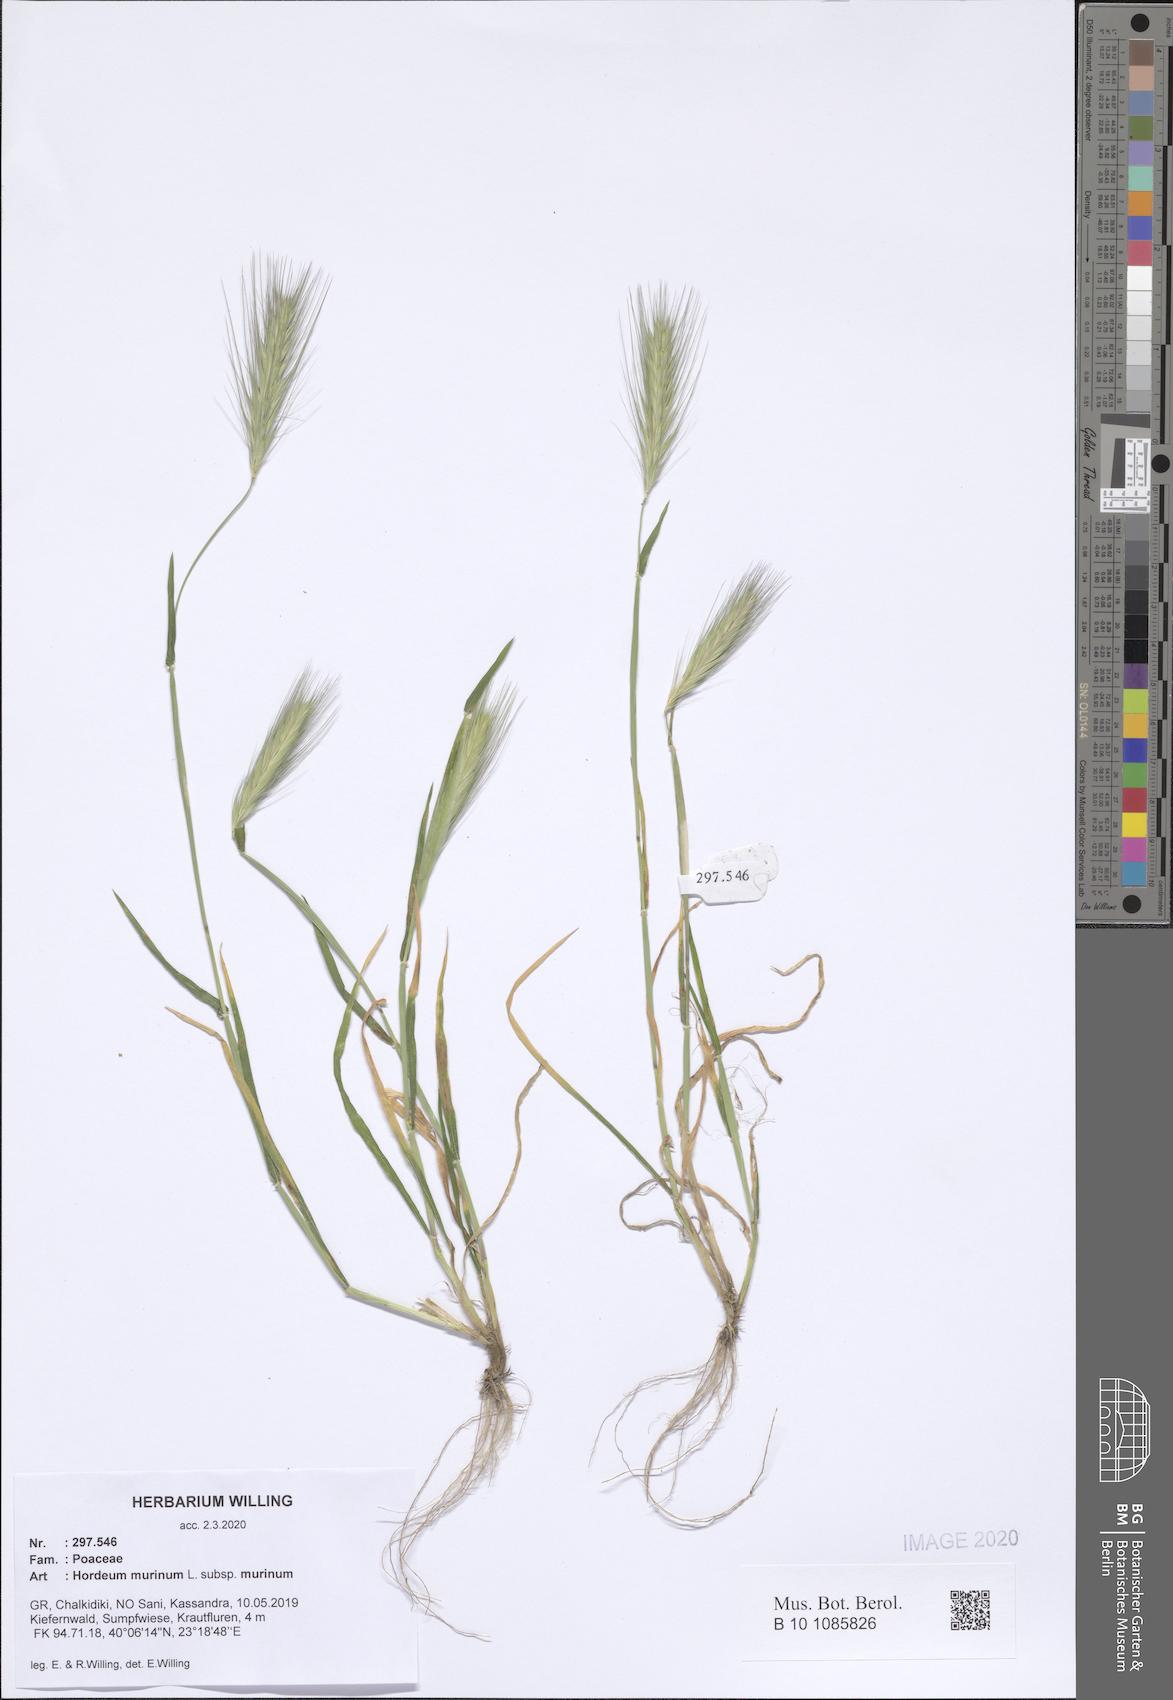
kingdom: Plantae
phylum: Tracheophyta
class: Liliopsida
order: Poales
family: Poaceae
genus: Hordeum
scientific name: Hordeum murinum
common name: Wall barley
